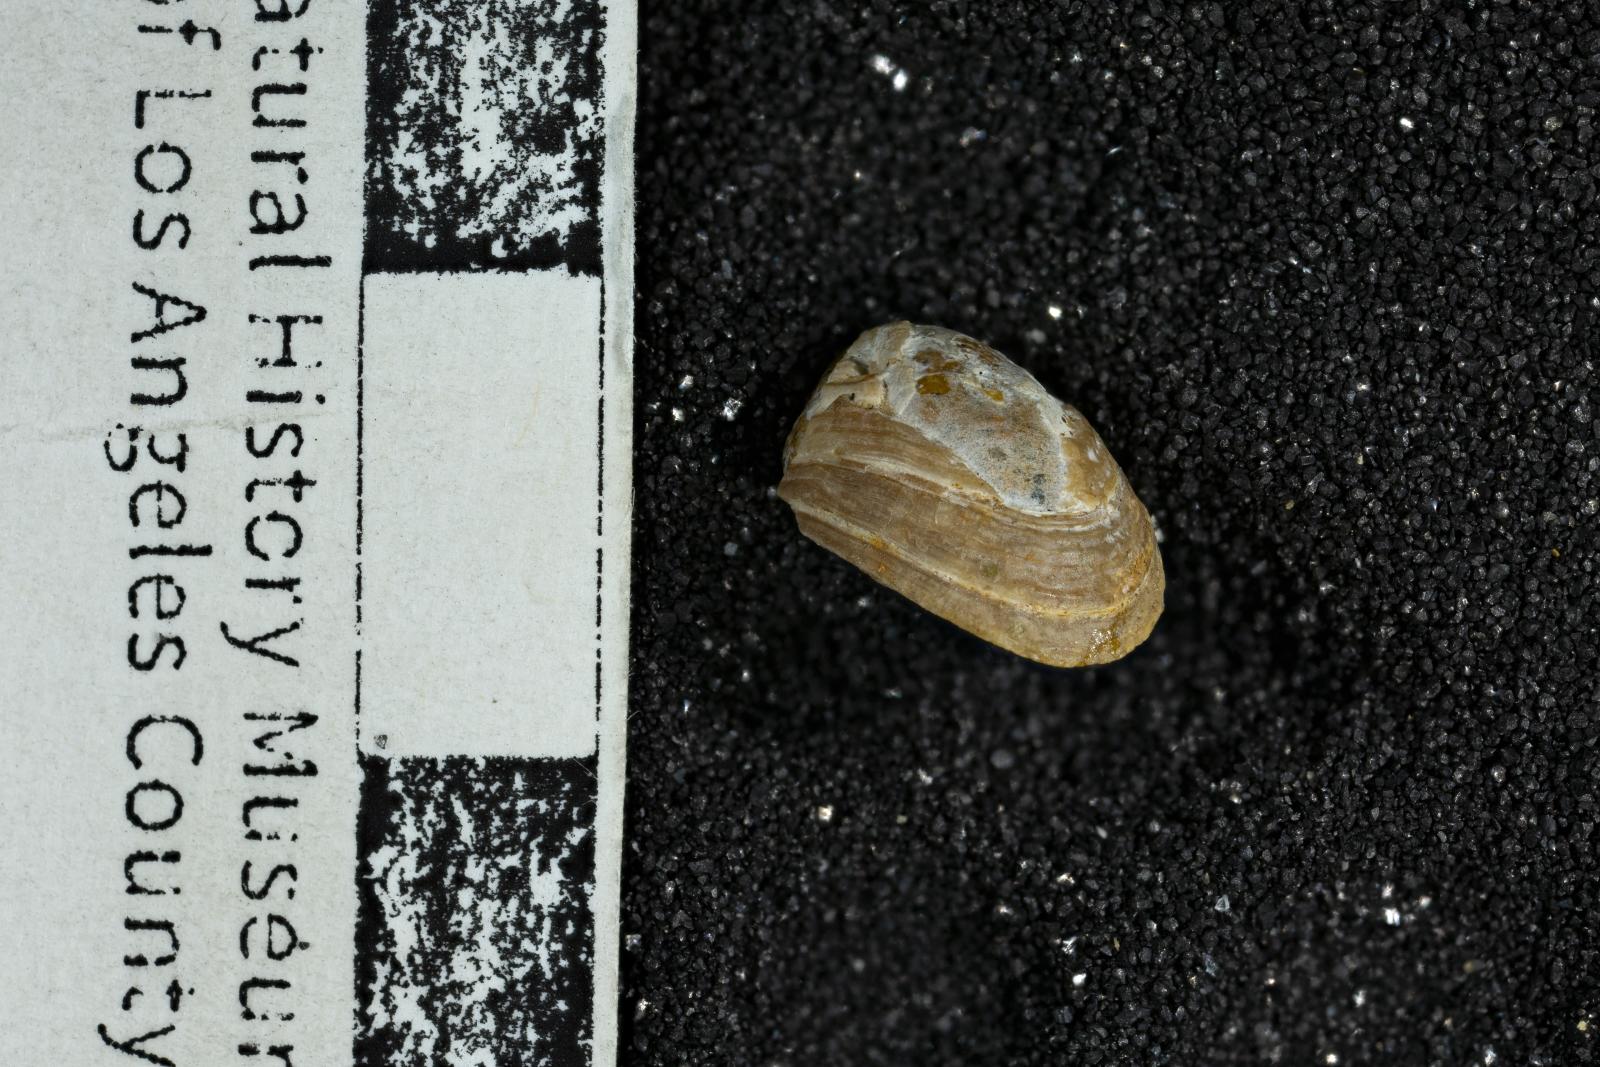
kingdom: Animalia
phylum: Mollusca
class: Gastropoda
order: Cycloneritida
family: Neritidae
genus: Neritina
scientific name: Neritina Nerita cuneata
